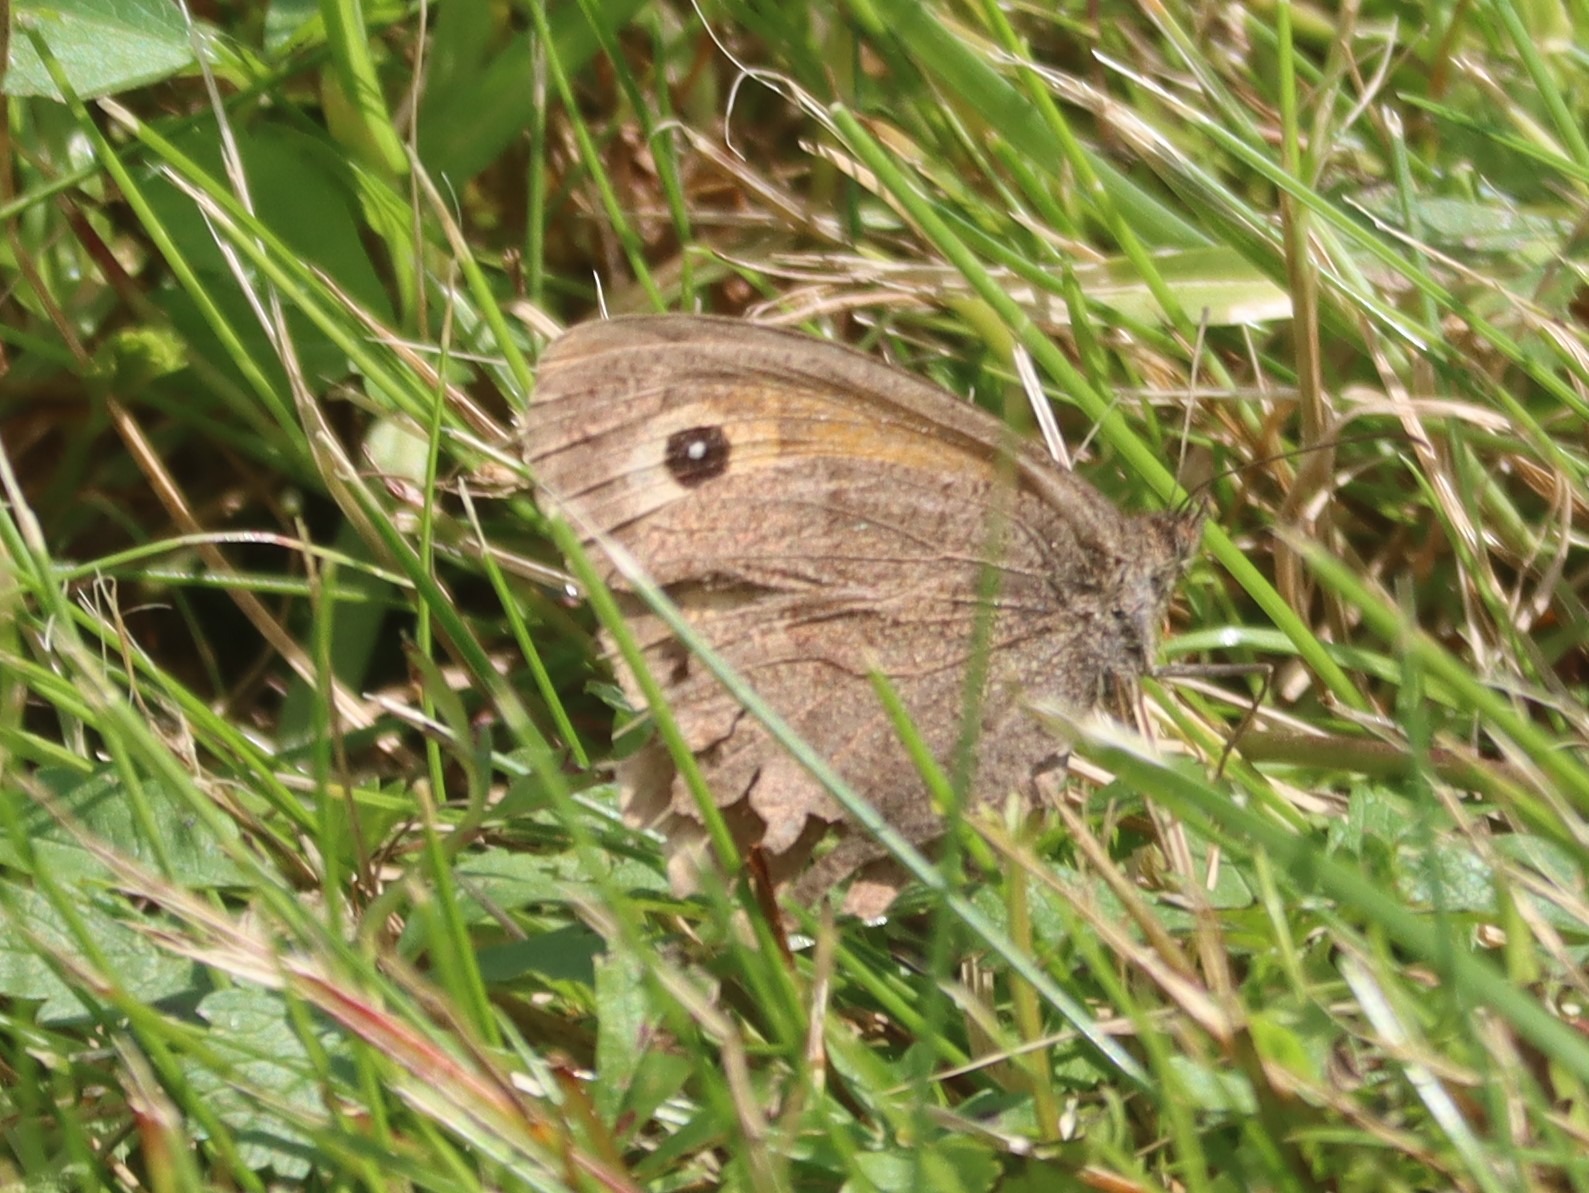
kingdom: Animalia
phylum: Arthropoda
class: Insecta
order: Lepidoptera
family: Nymphalidae
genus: Maniola
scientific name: Maniola jurtina
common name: Græsrandøje
